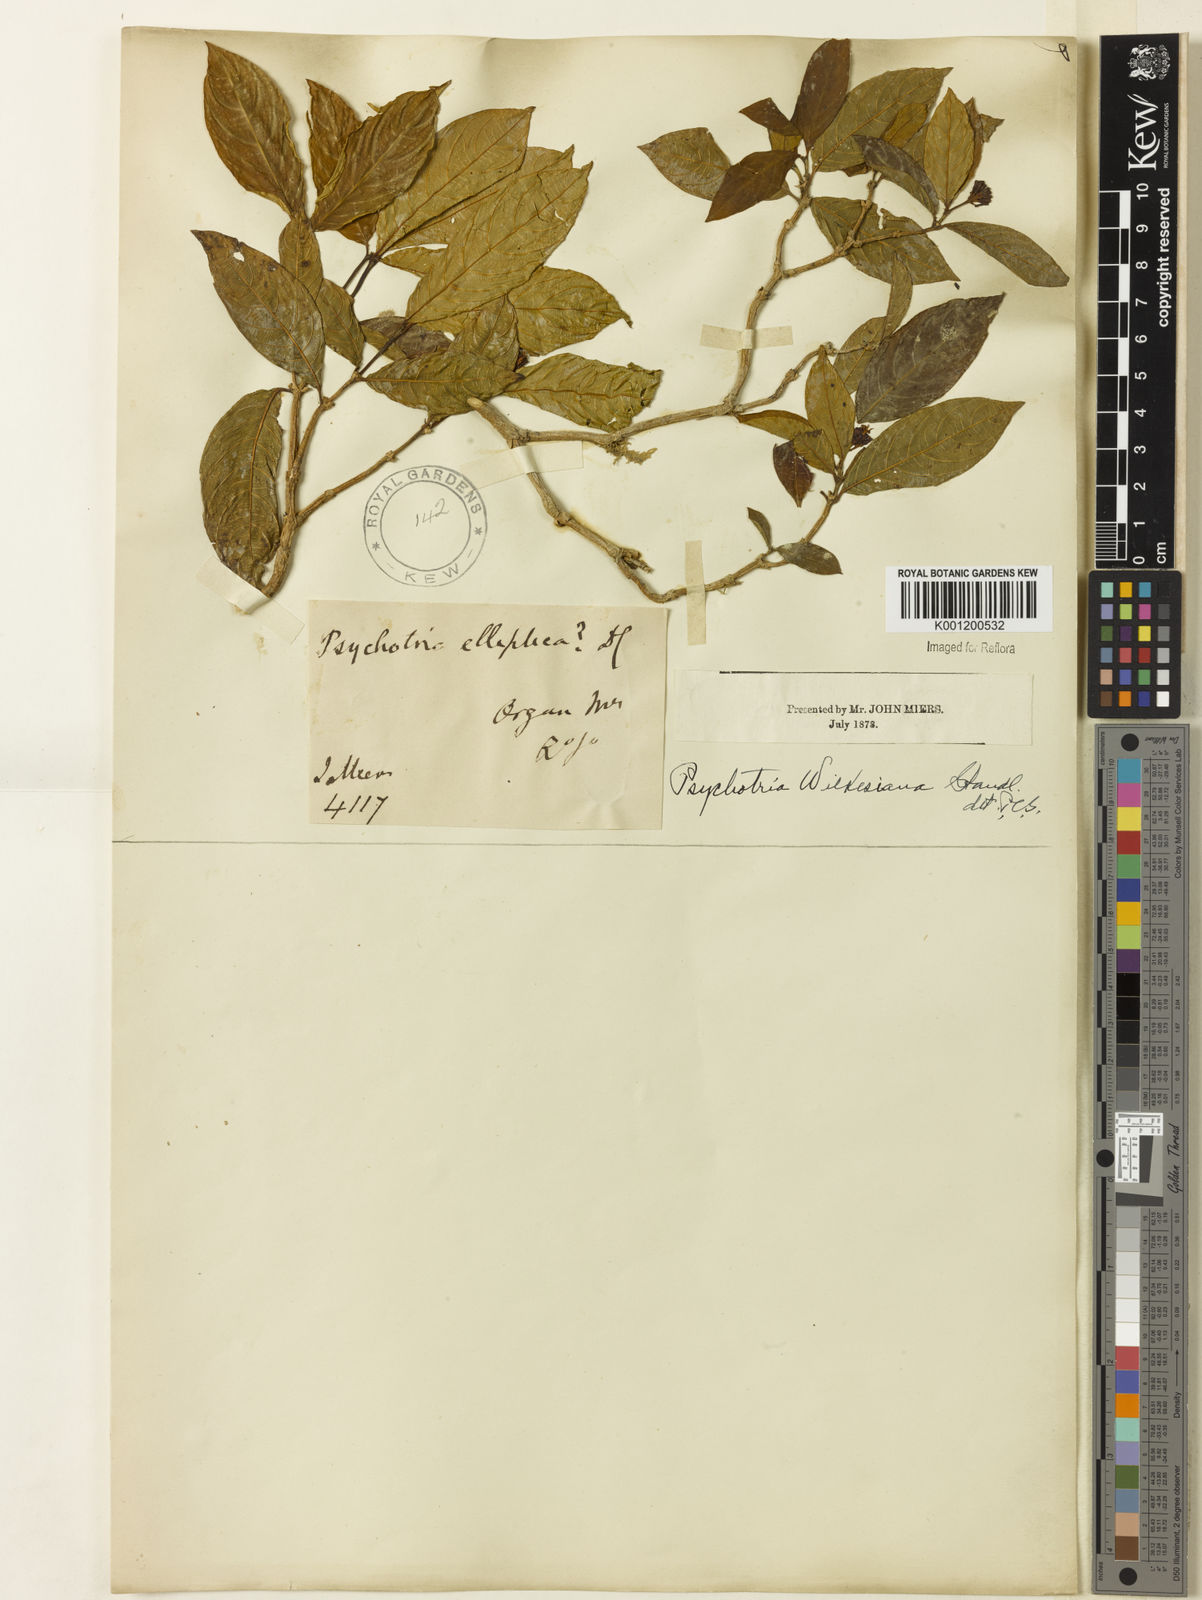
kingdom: Plantae
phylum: Tracheophyta
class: Magnoliopsida
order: Gentianales
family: Rubiaceae
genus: Psychotria
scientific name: Psychotria wilkesiana
